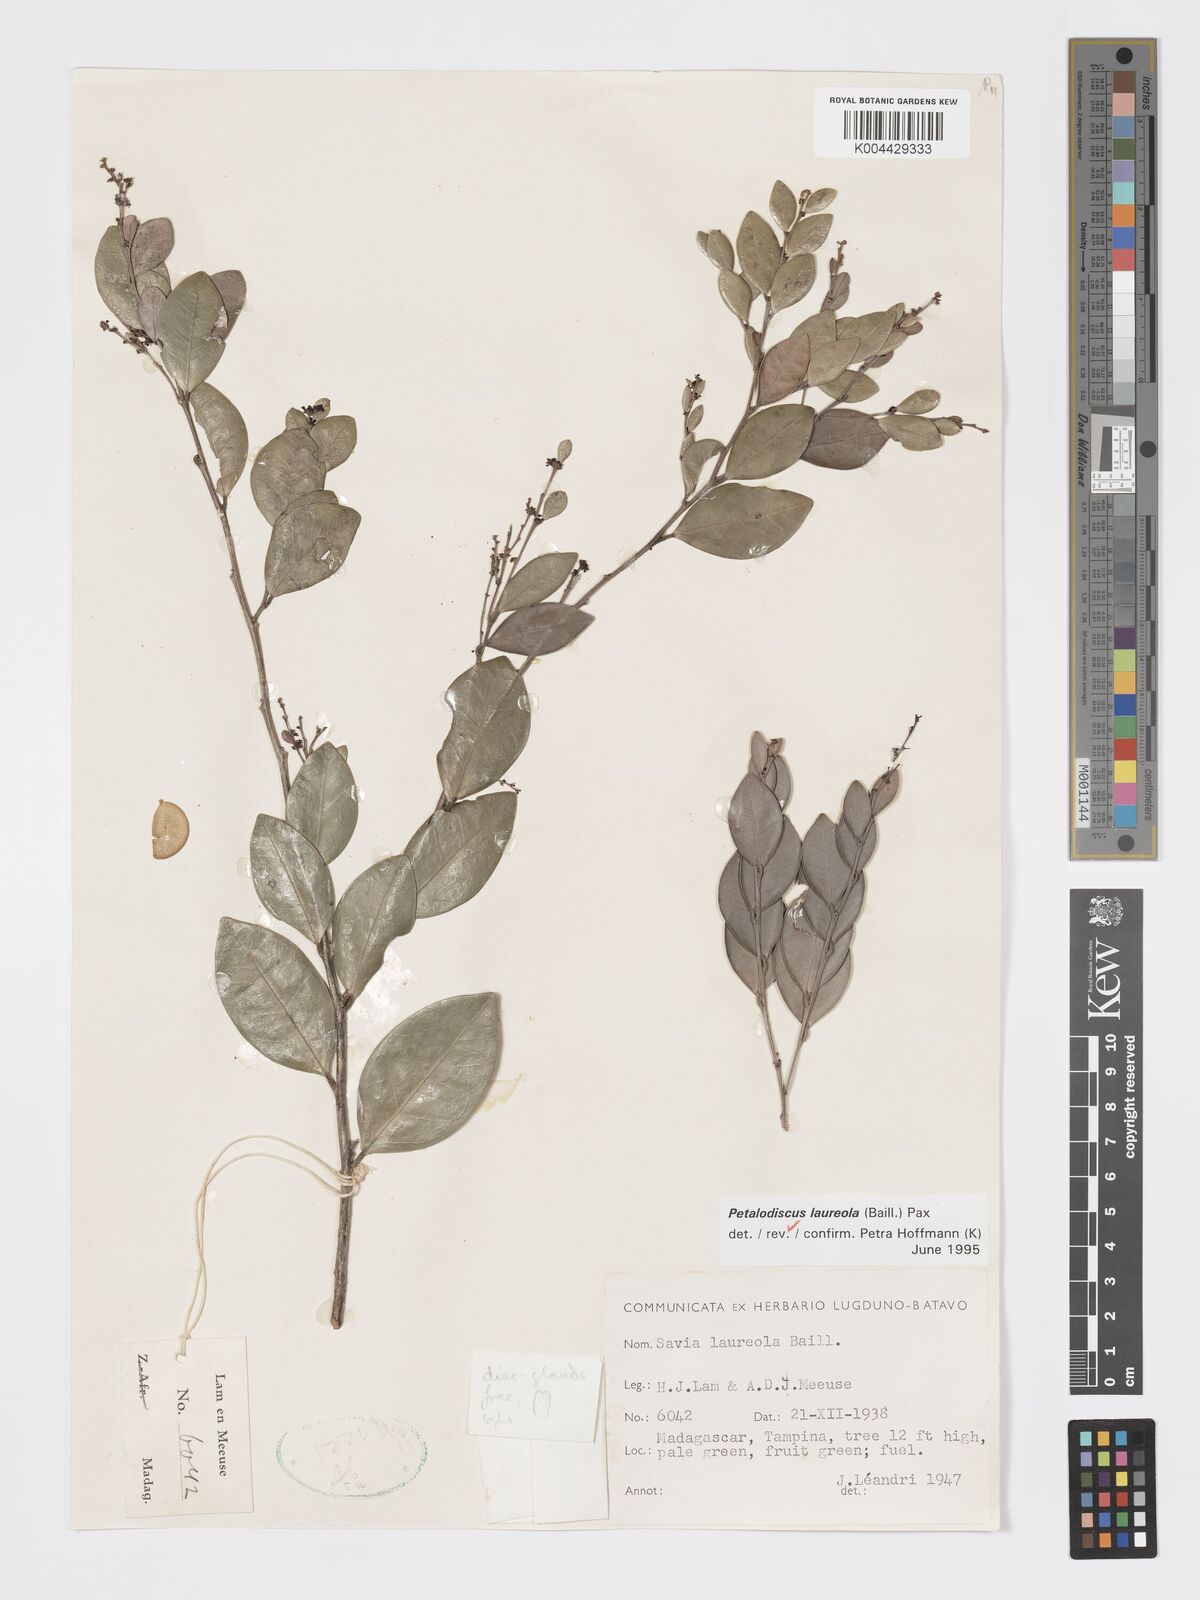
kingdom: Plantae
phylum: Tracheophyta
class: Magnoliopsida
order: Malpighiales
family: Phyllanthaceae
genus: Wielandia
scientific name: Wielandia laureola
